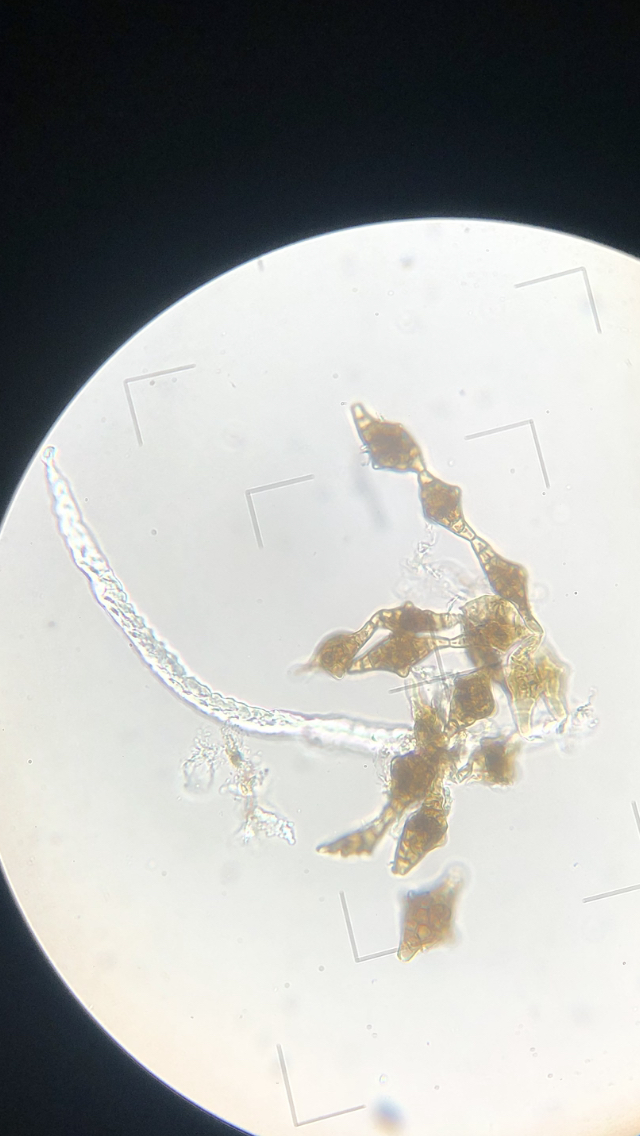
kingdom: Fungi
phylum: Ascomycota
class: Dothideomycetes
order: Pleosporales
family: Melanommataceae
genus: Phragmotrichum
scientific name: Phragmotrichum chailletii
